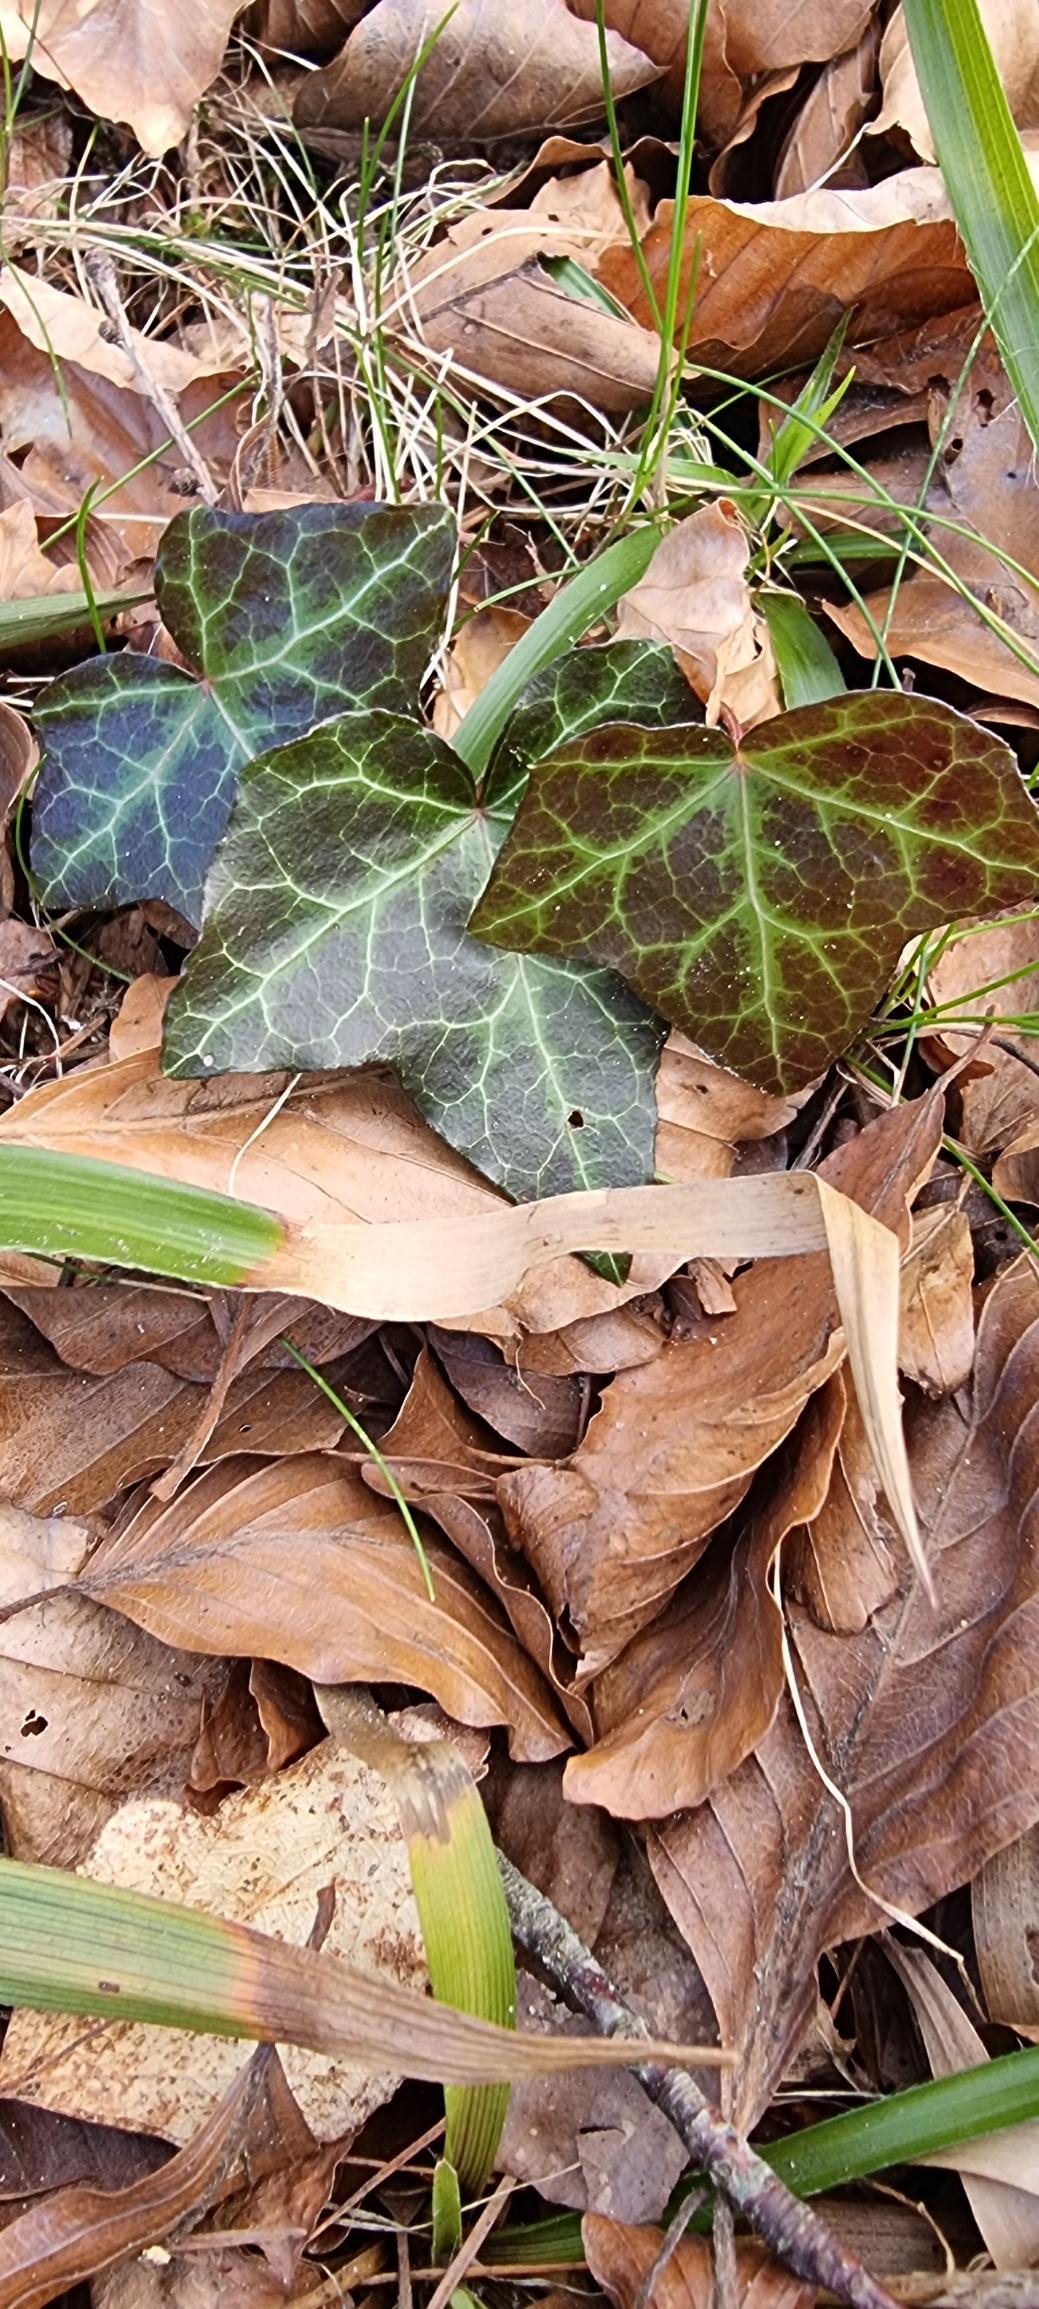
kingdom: Plantae
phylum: Tracheophyta
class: Magnoliopsida
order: Apiales
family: Araliaceae
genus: Hedera
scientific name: Hedera helix
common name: Vedbend
